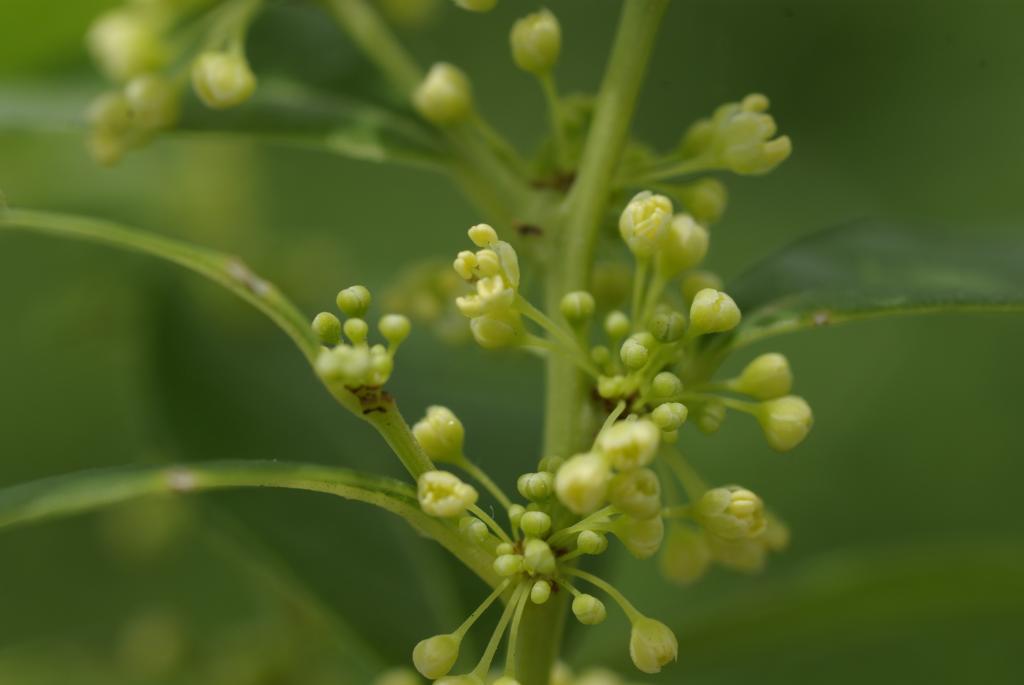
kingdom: Plantae
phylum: Tracheophyta
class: Magnoliopsida
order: Malpighiales
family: Phyllanthaceae
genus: Flueggea
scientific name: Flueggea suffruticosa
